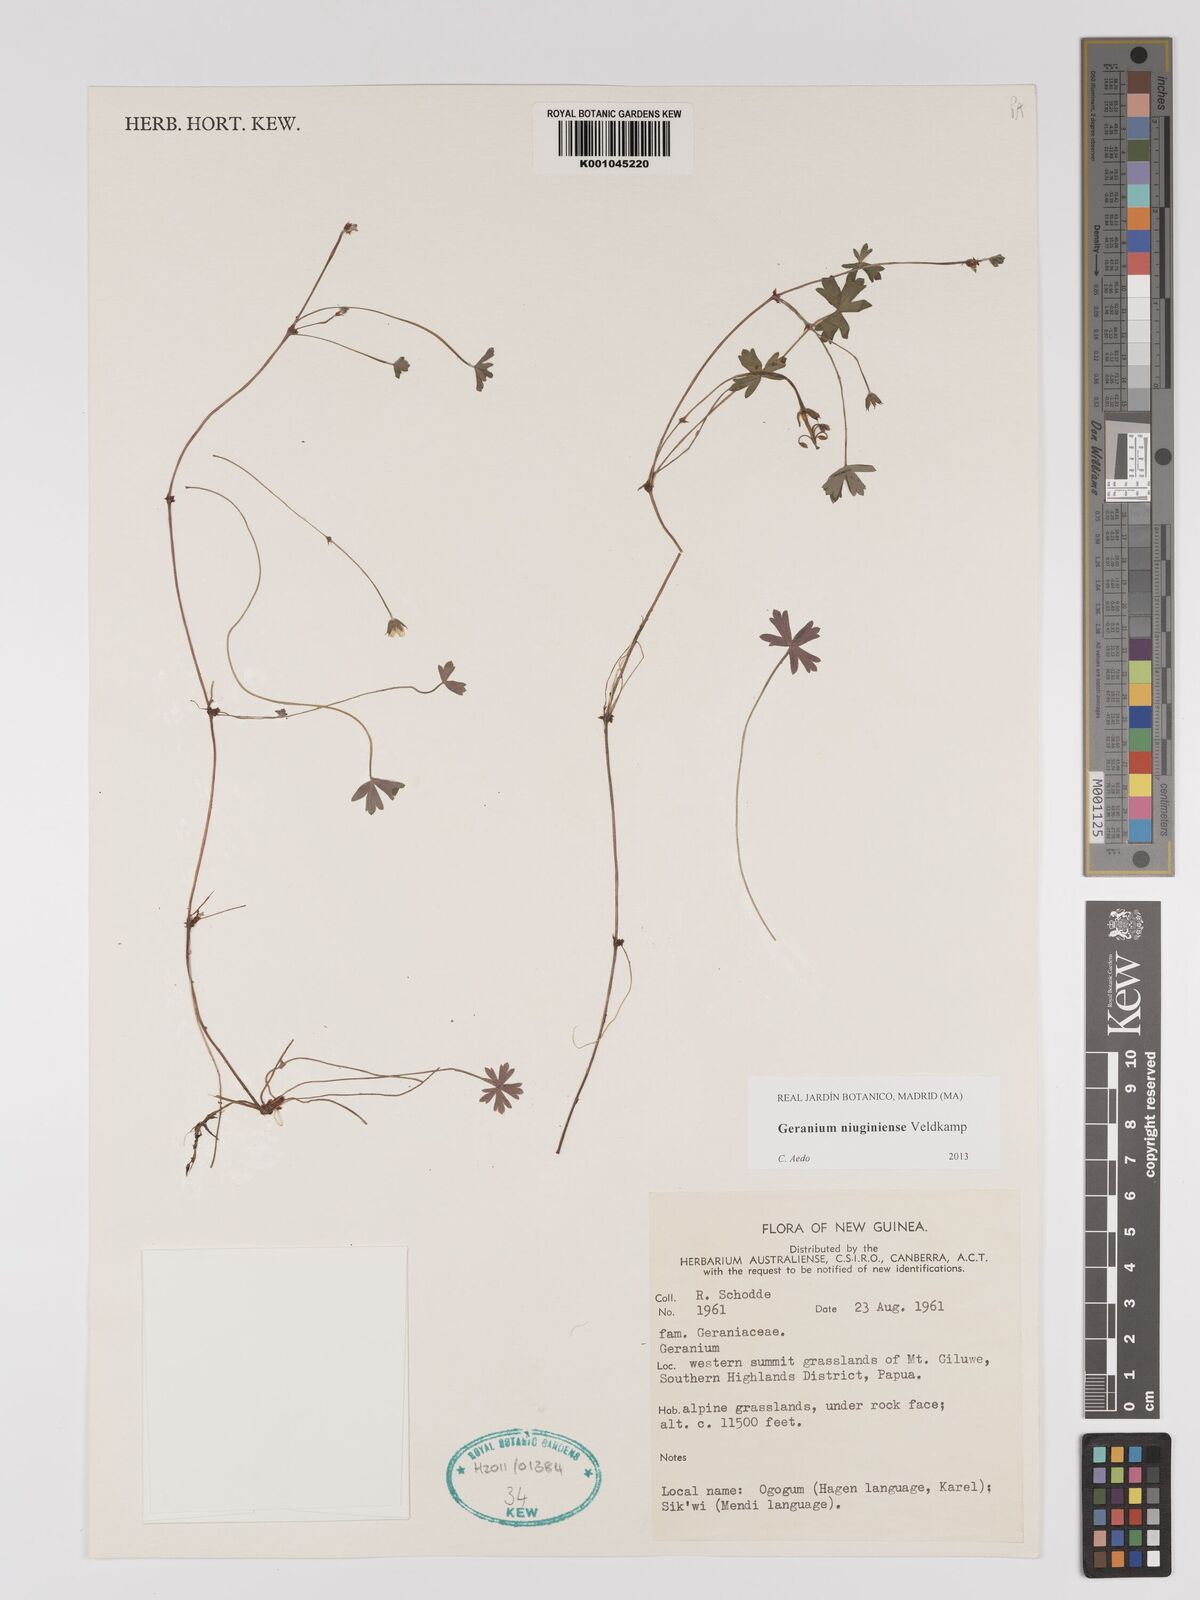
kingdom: Plantae
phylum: Tracheophyta
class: Magnoliopsida
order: Geraniales
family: Geraniaceae
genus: Geranium
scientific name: Geranium niuginiense
